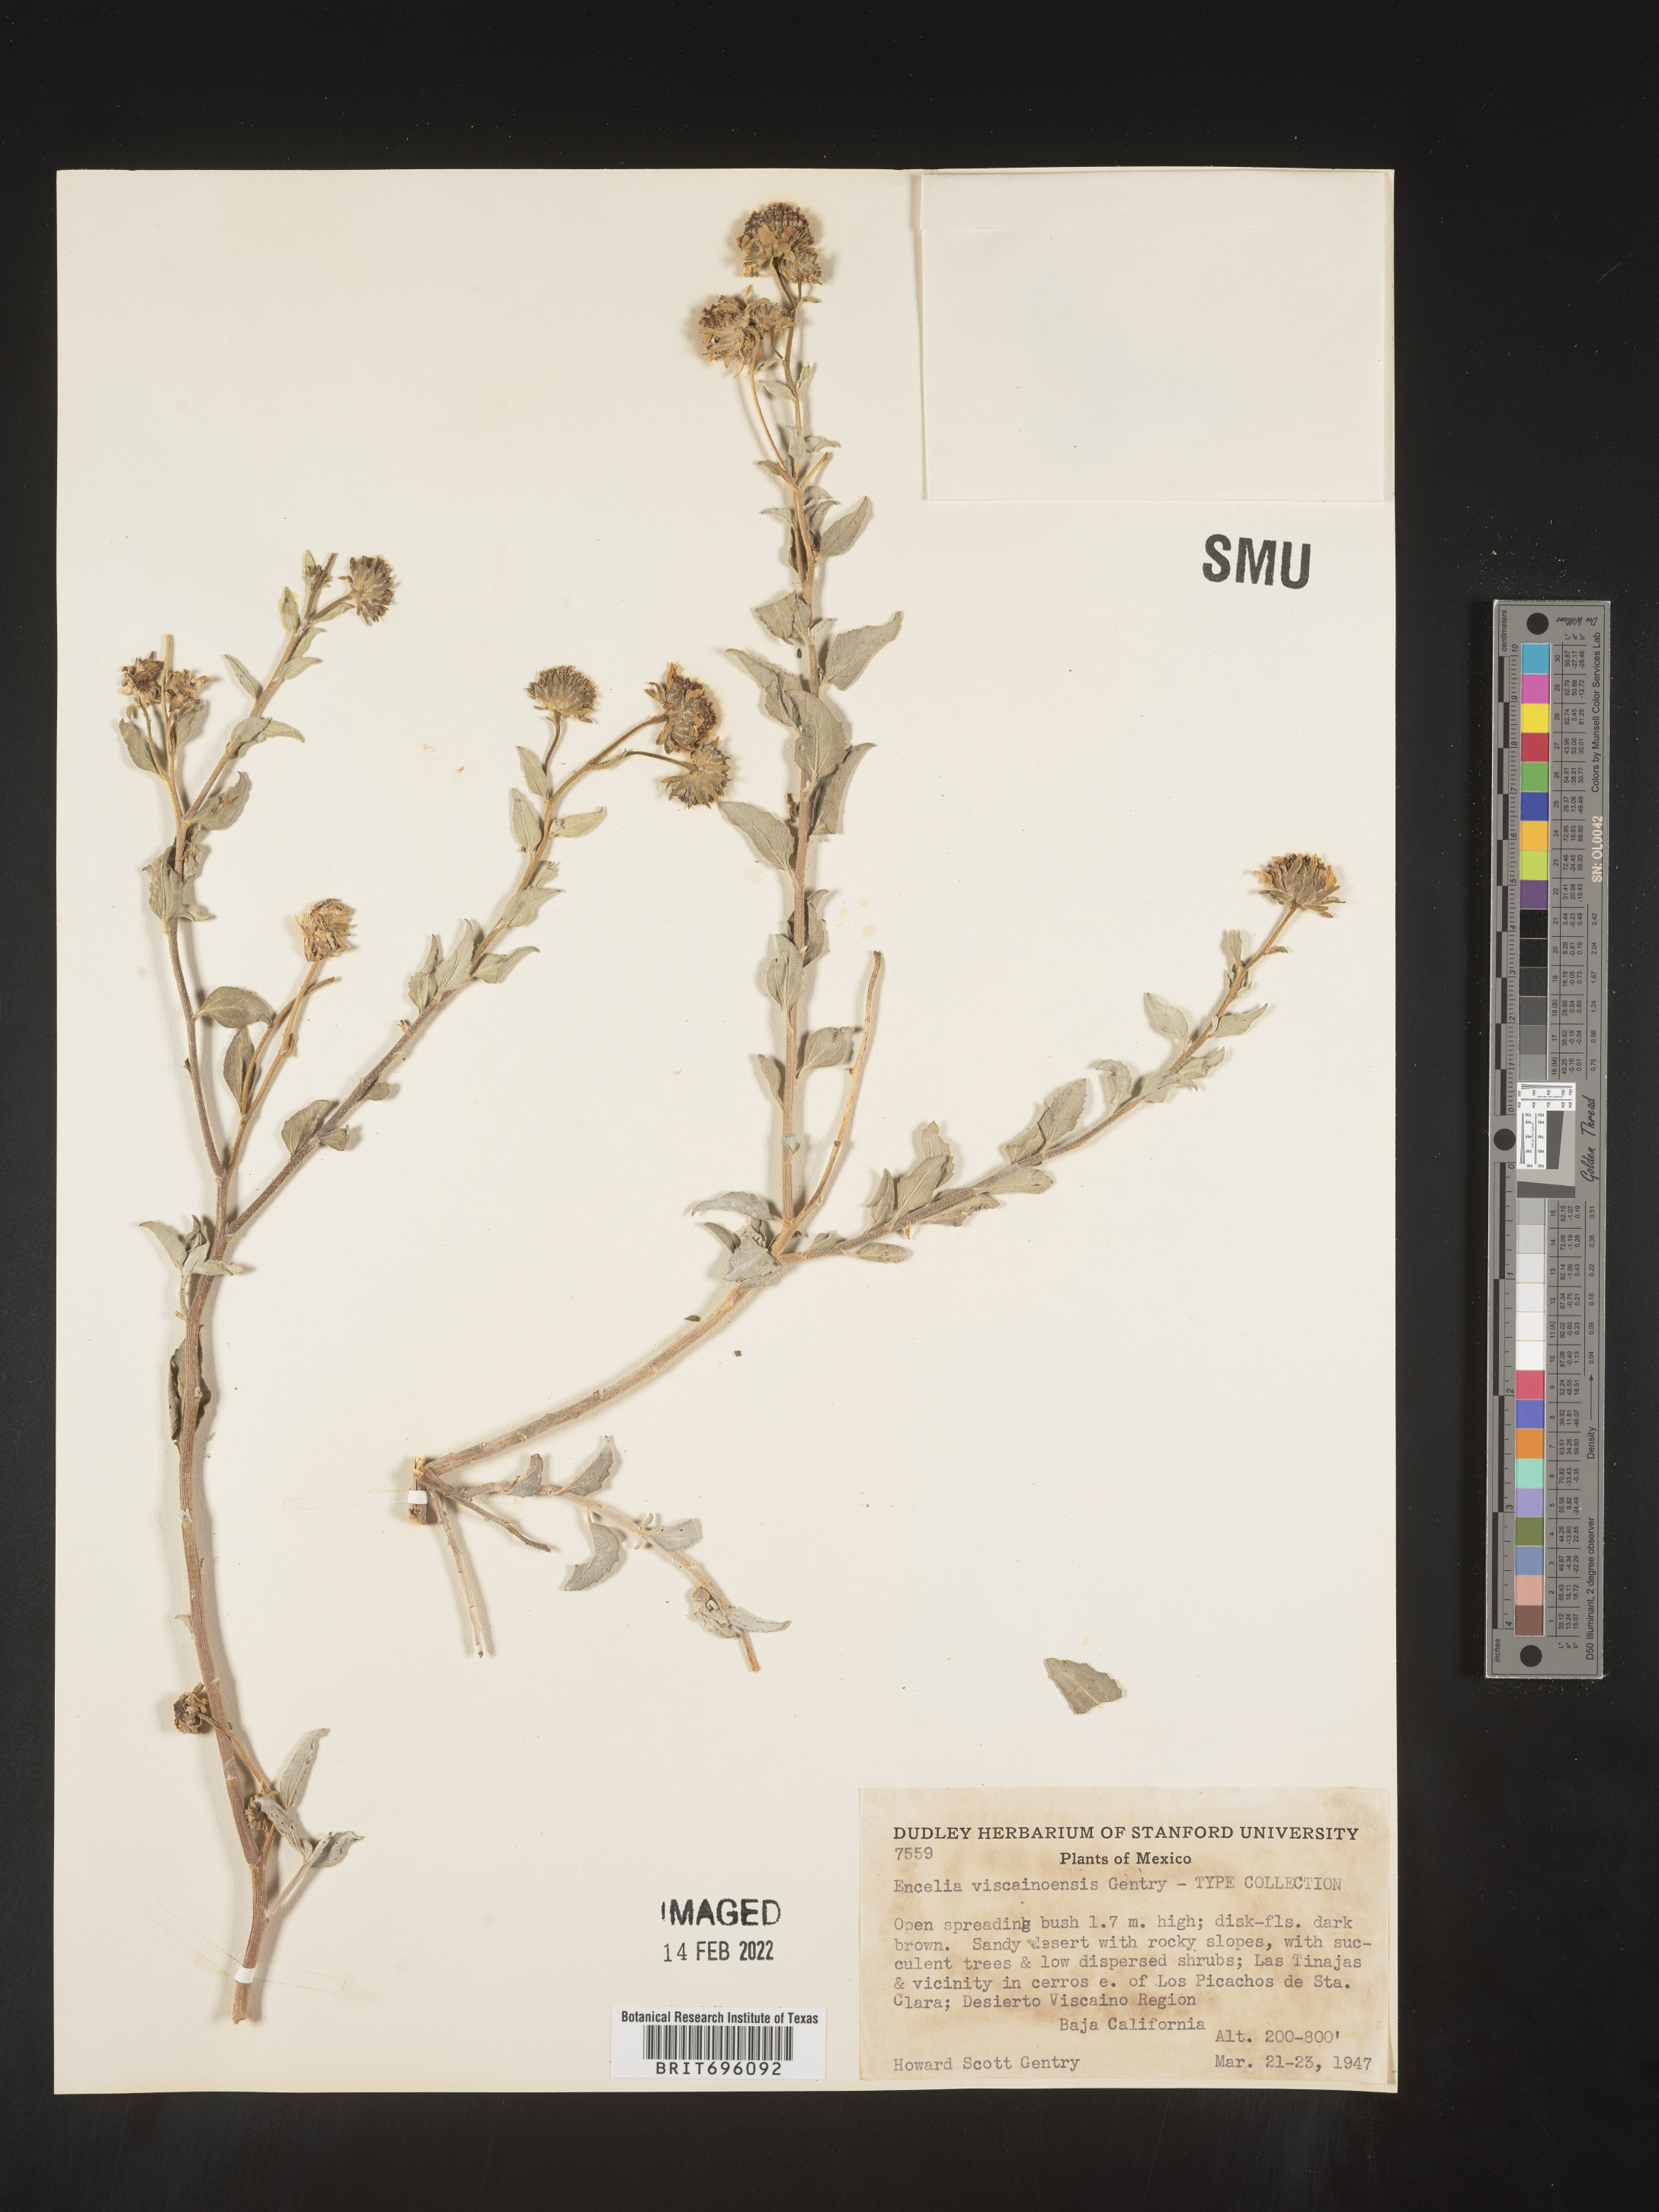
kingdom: Plantae
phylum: Tracheophyta
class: Magnoliopsida
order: Asterales
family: Asteraceae
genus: Encelia
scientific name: Encelia
